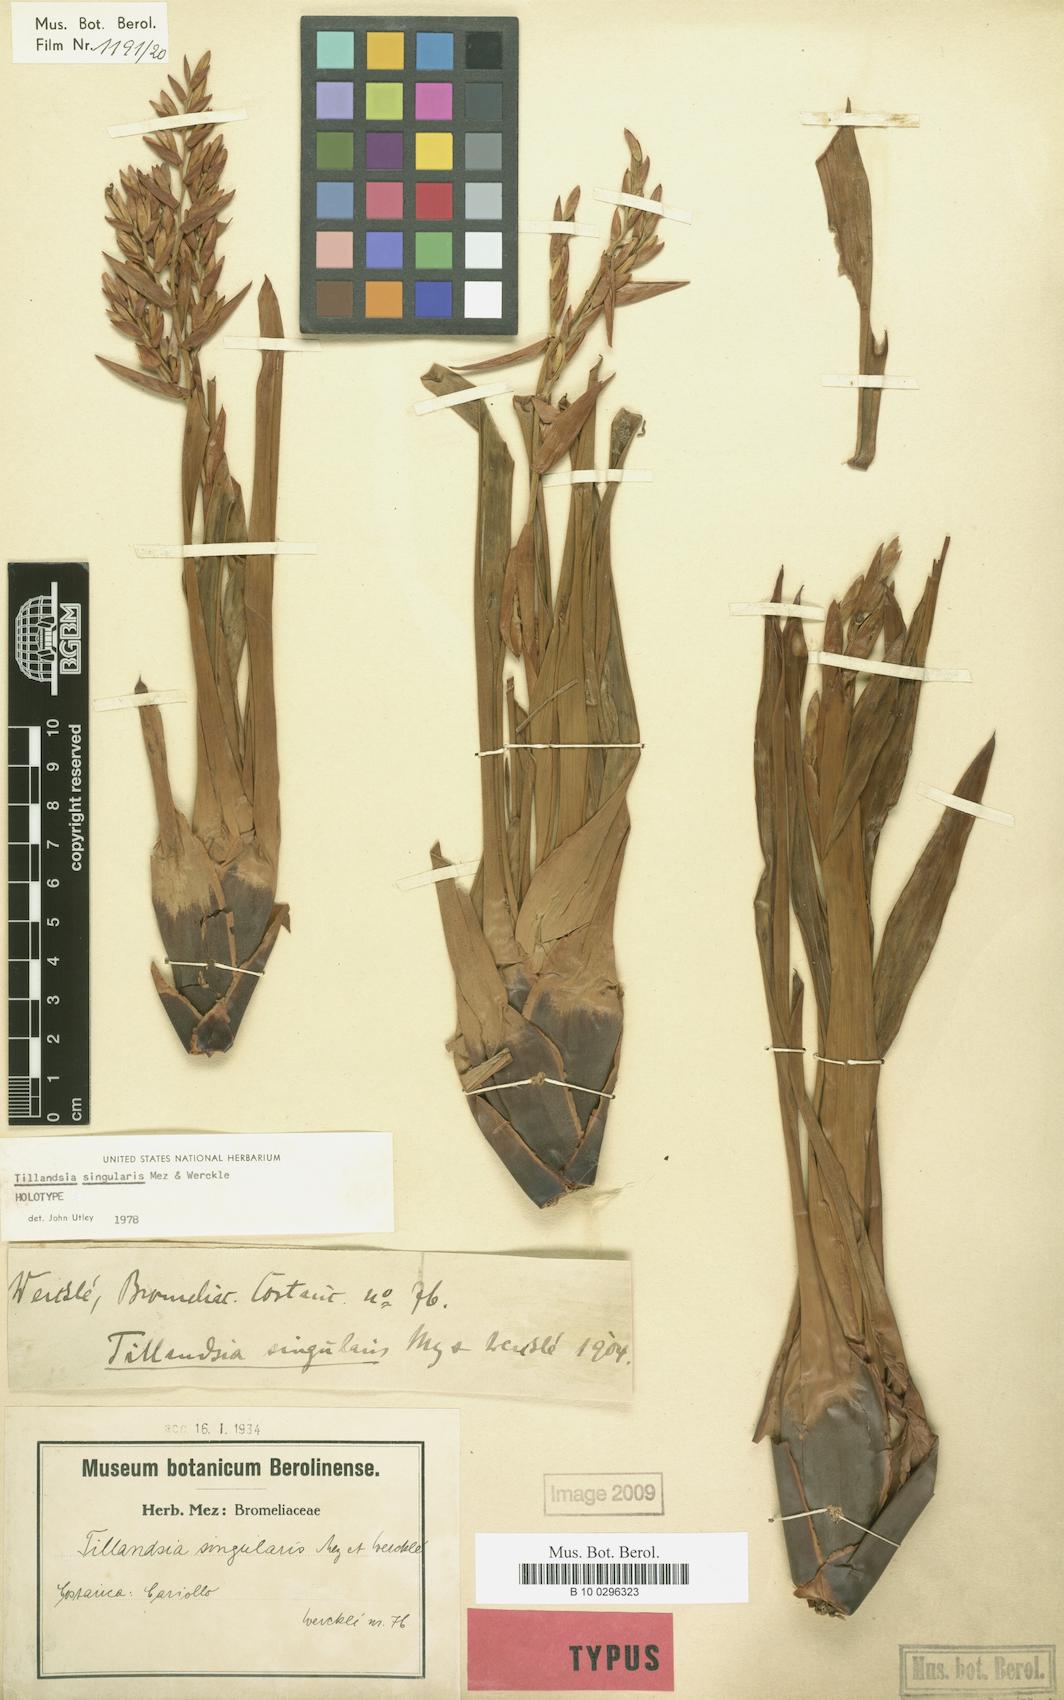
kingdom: Plantae
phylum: Tracheophyta
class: Liliopsida
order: Poales
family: Bromeliaceae
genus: Cipuropsis
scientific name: Cipuropsis singularis
